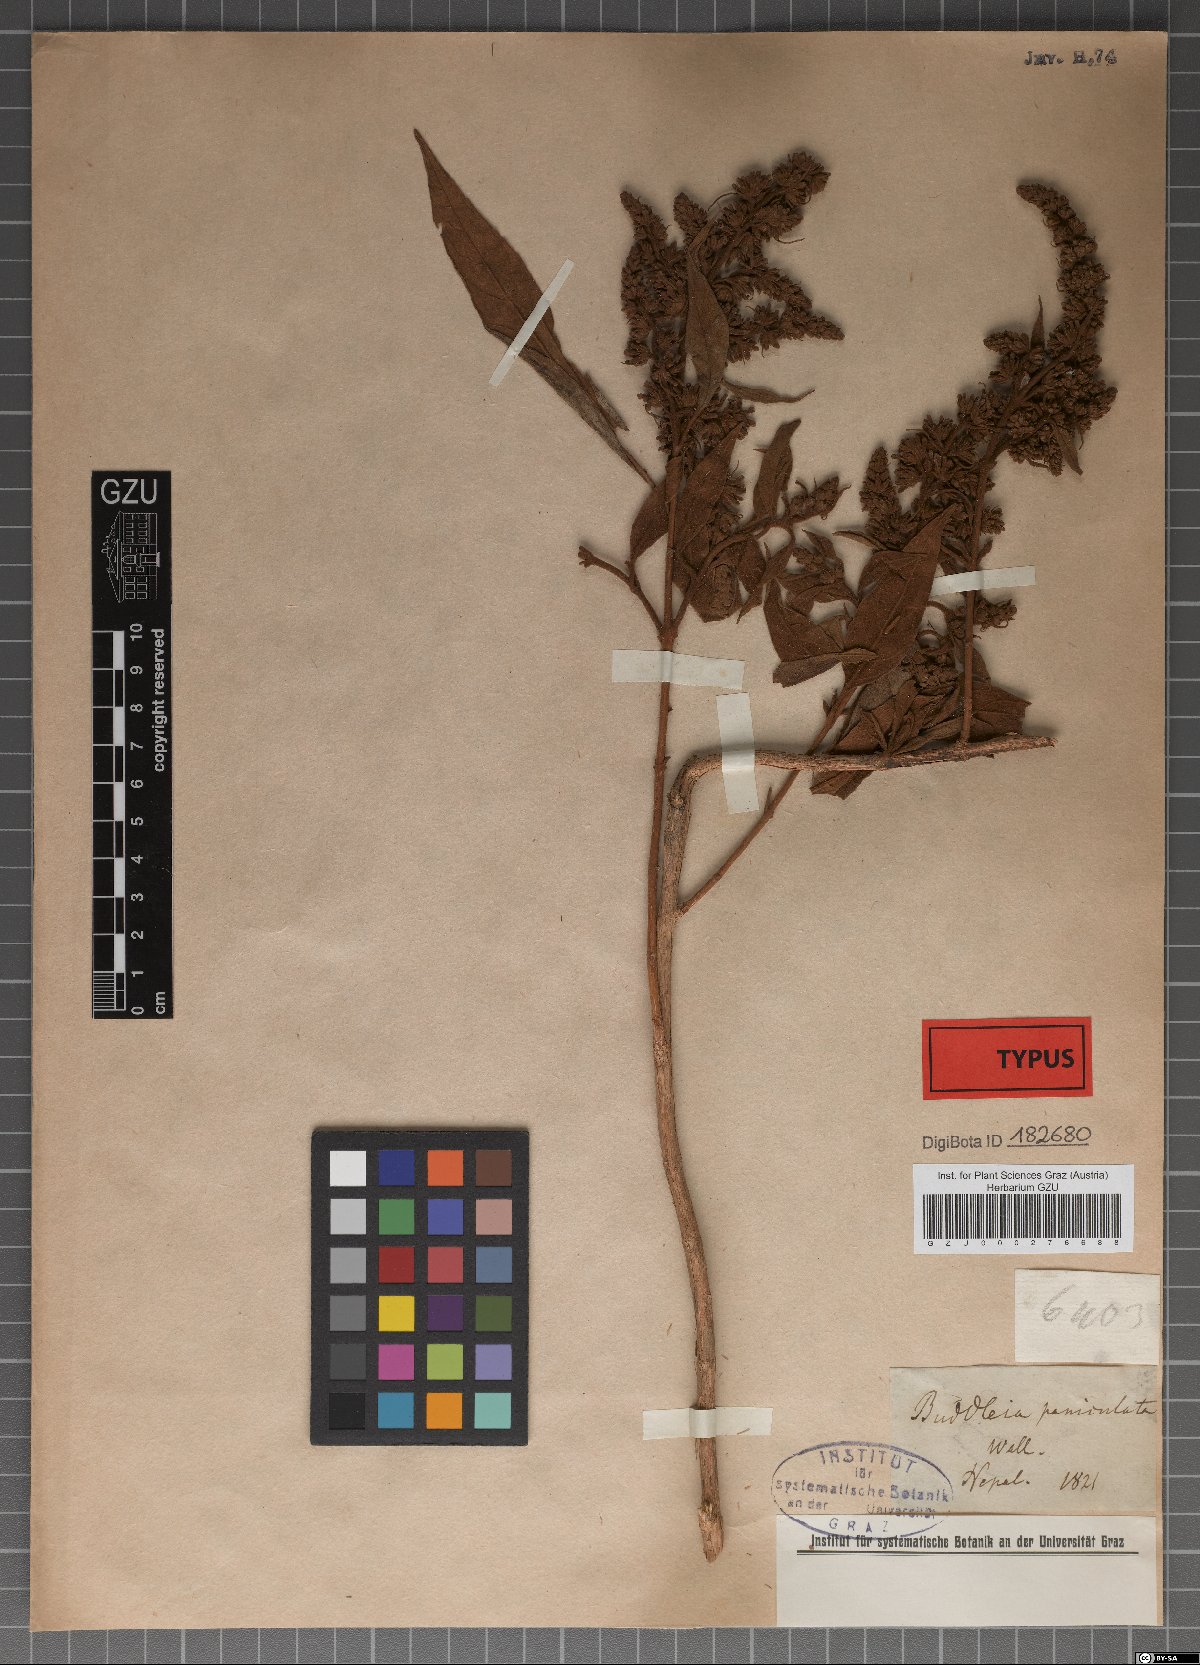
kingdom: Plantae
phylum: Tracheophyta
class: Magnoliopsida
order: Lamiales
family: Scrophulariaceae
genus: Buddleja
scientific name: Buddleja paniculata
